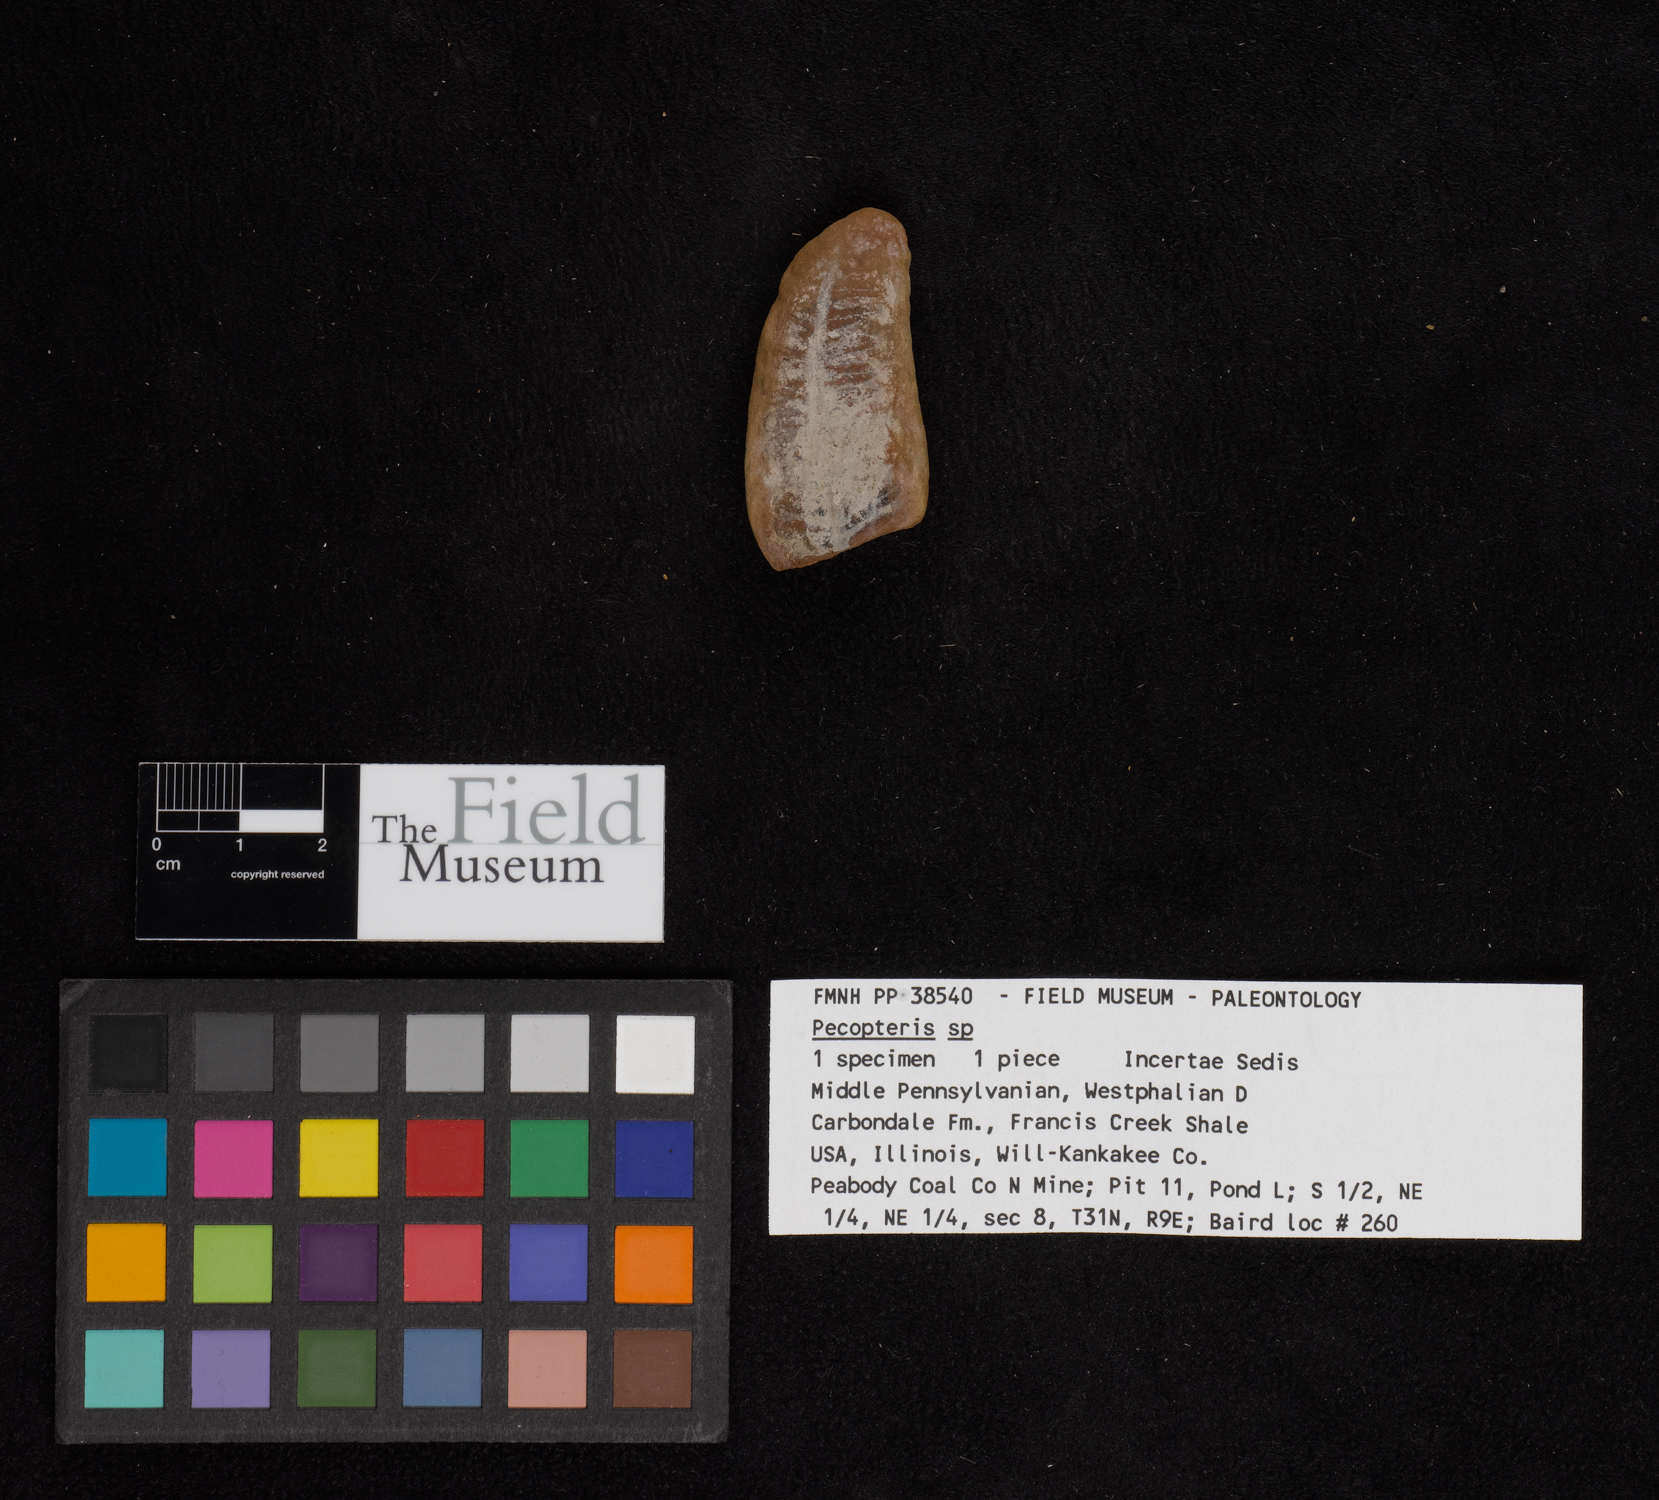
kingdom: Plantae
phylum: Tracheophyta
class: Polypodiopsida
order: Marattiales
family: Asterothecaceae
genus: Pecopteris
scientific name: Pecopteris
